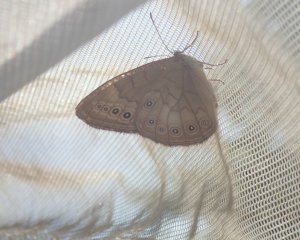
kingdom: Animalia
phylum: Arthropoda
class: Insecta
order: Lepidoptera
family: Nymphalidae
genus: Lethe
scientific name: Lethe eurydice
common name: Eyed Brown
